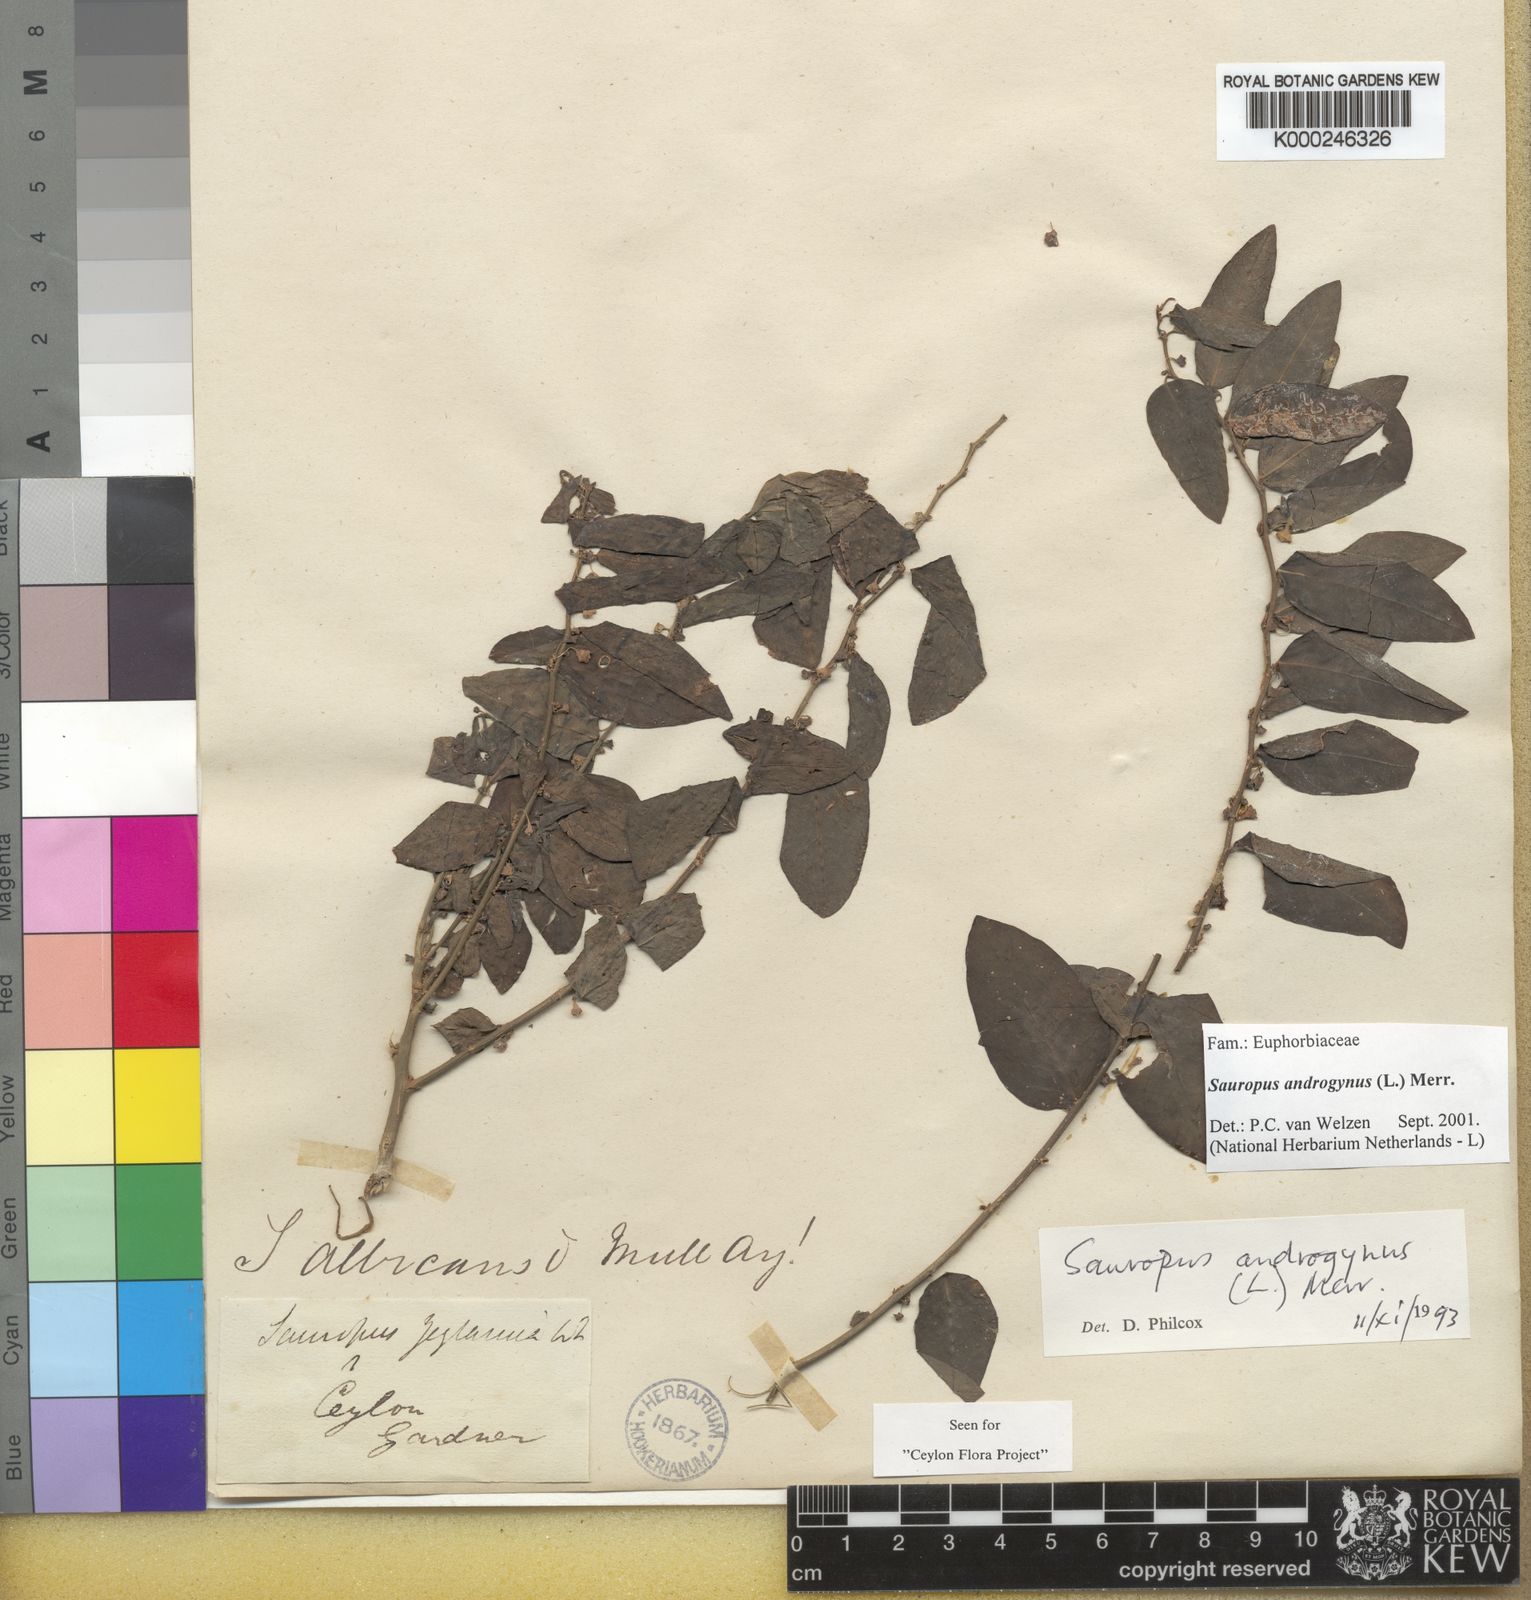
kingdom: Plantae
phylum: Tracheophyta
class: Magnoliopsida
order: Malpighiales
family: Phyllanthaceae
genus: Breynia
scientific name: Breynia androgyna
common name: Star gooseberry
